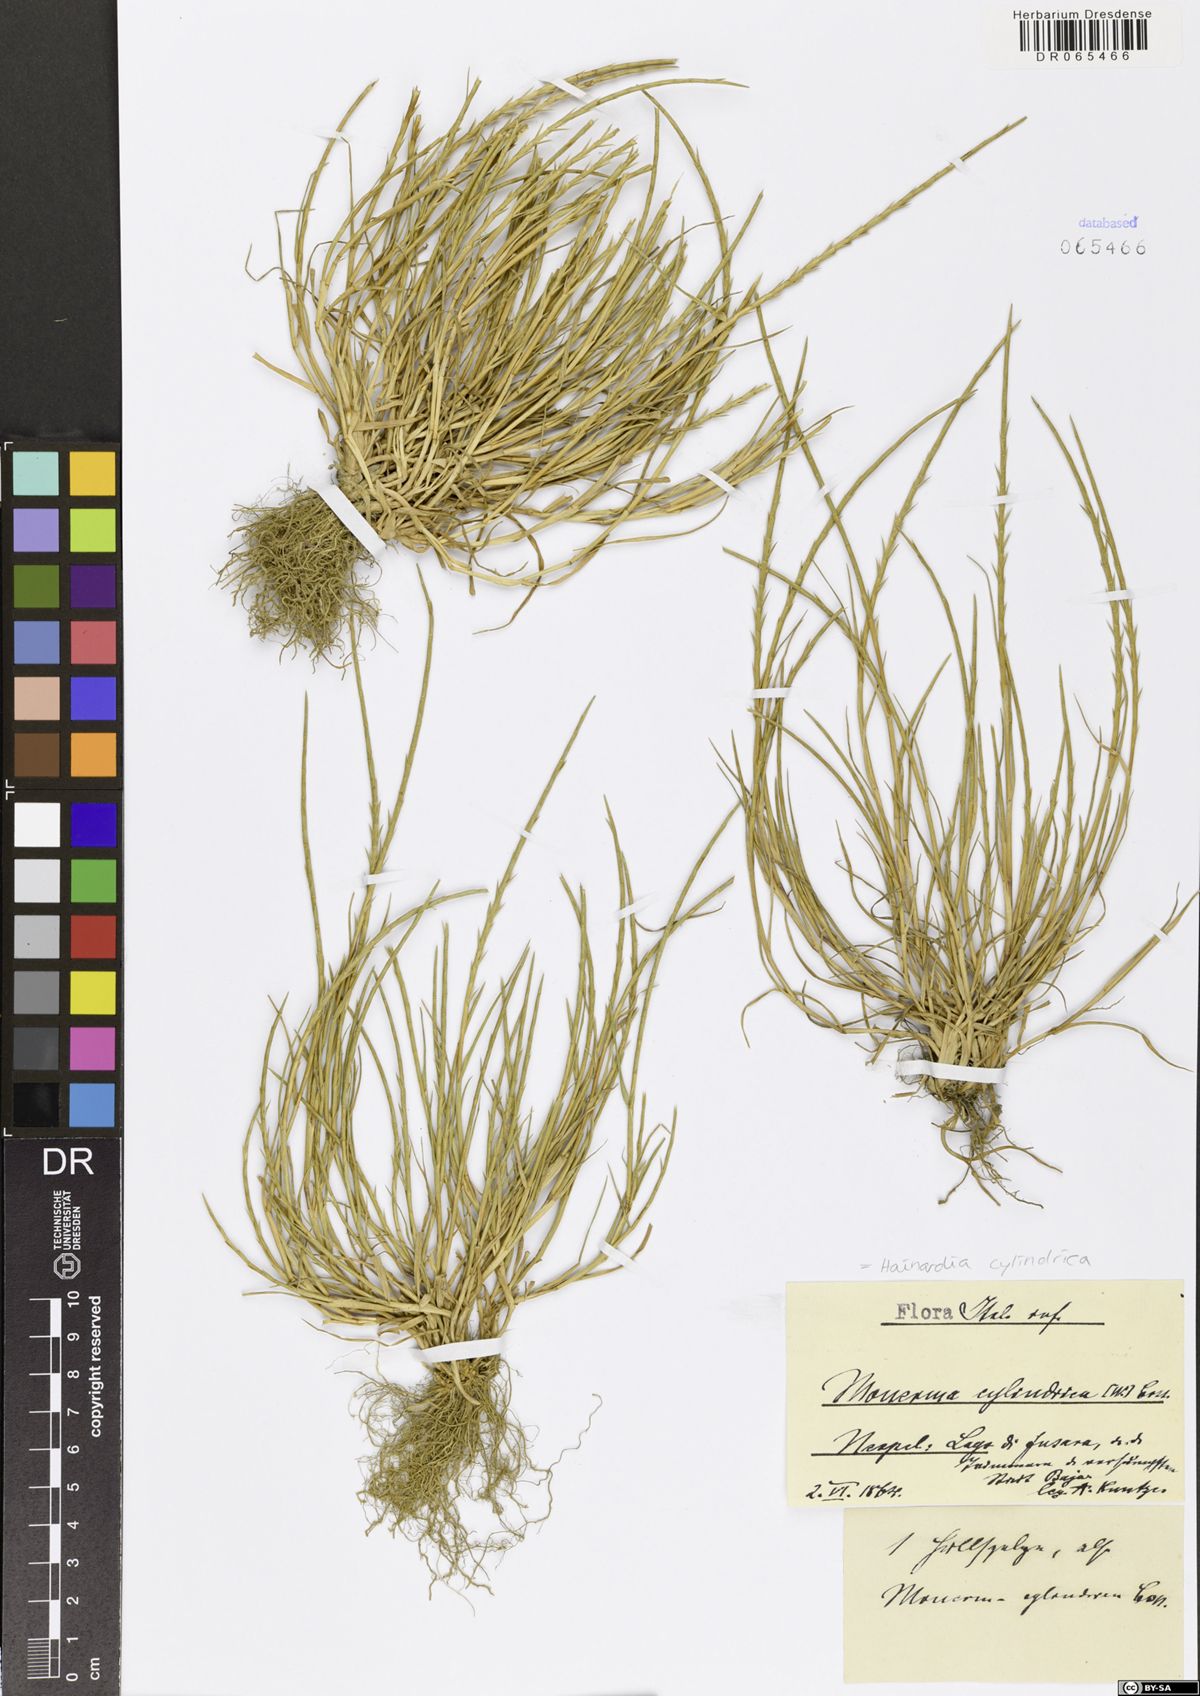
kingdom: Plantae
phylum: Tracheophyta
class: Liliopsida
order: Poales
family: Poaceae
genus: Parapholis
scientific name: Parapholis cylindrica
